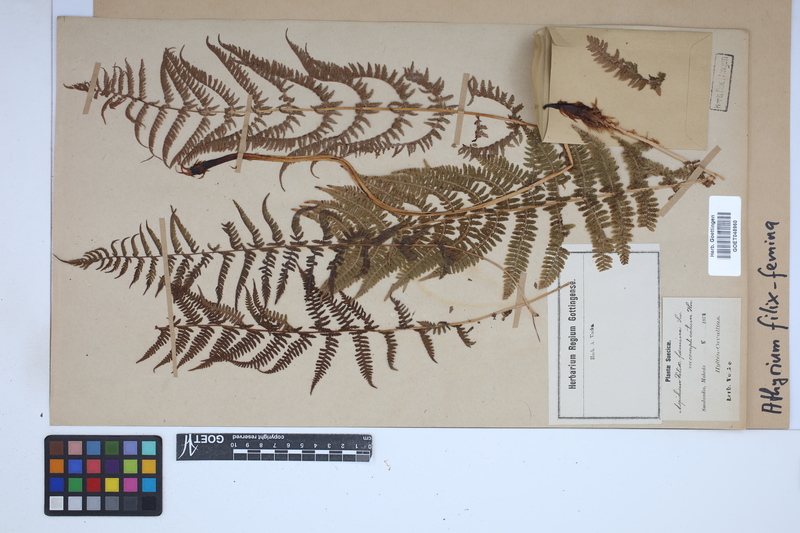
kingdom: Plantae
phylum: Tracheophyta
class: Polypodiopsida
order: Polypodiales
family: Athyriaceae
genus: Athyrium
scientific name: Athyrium filix-femina
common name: Lady fern
